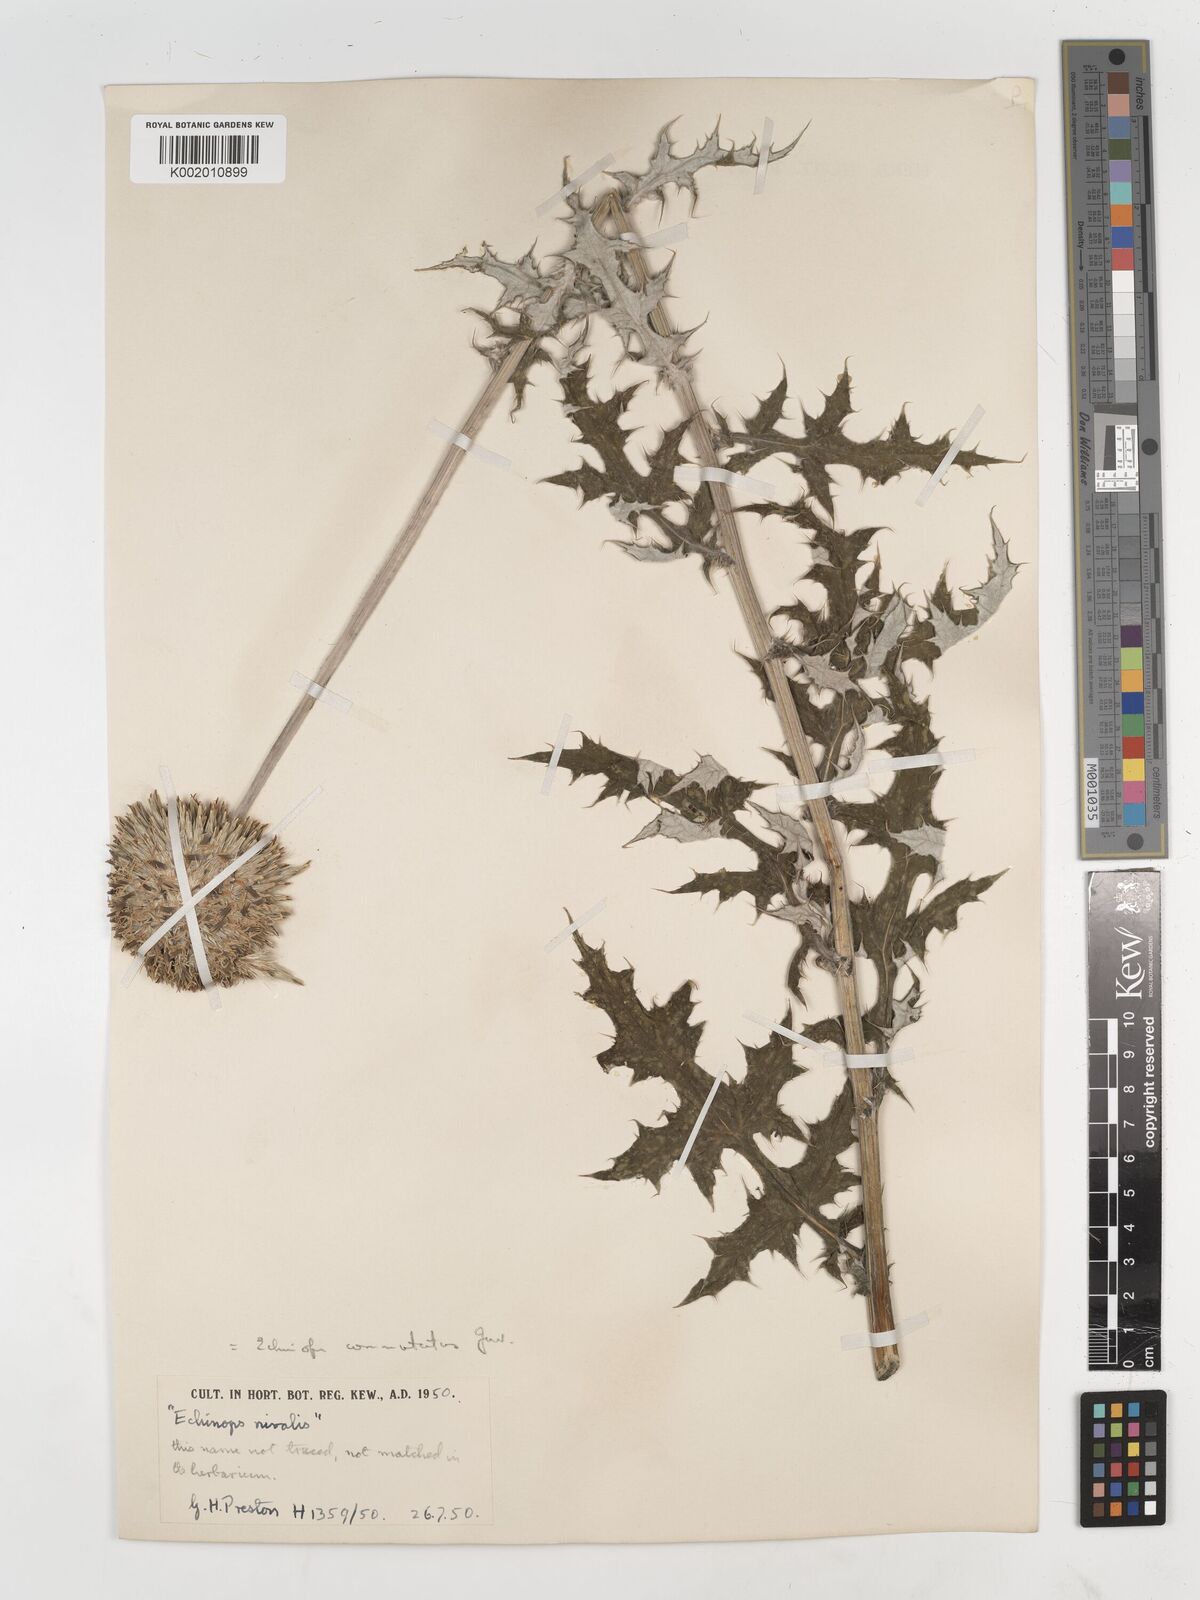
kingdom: Plantae
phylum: Tracheophyta
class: Magnoliopsida
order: Asterales
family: Asteraceae
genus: Echinops
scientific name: Echinops exaltatus
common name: Globe-thistle
